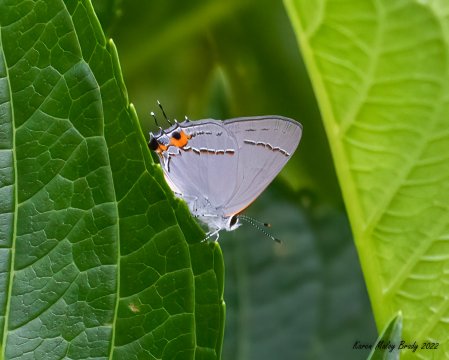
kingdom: Animalia
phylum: Arthropoda
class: Insecta
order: Lepidoptera
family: Lycaenidae
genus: Strymon
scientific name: Strymon melinus
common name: Gray Hairstreak
